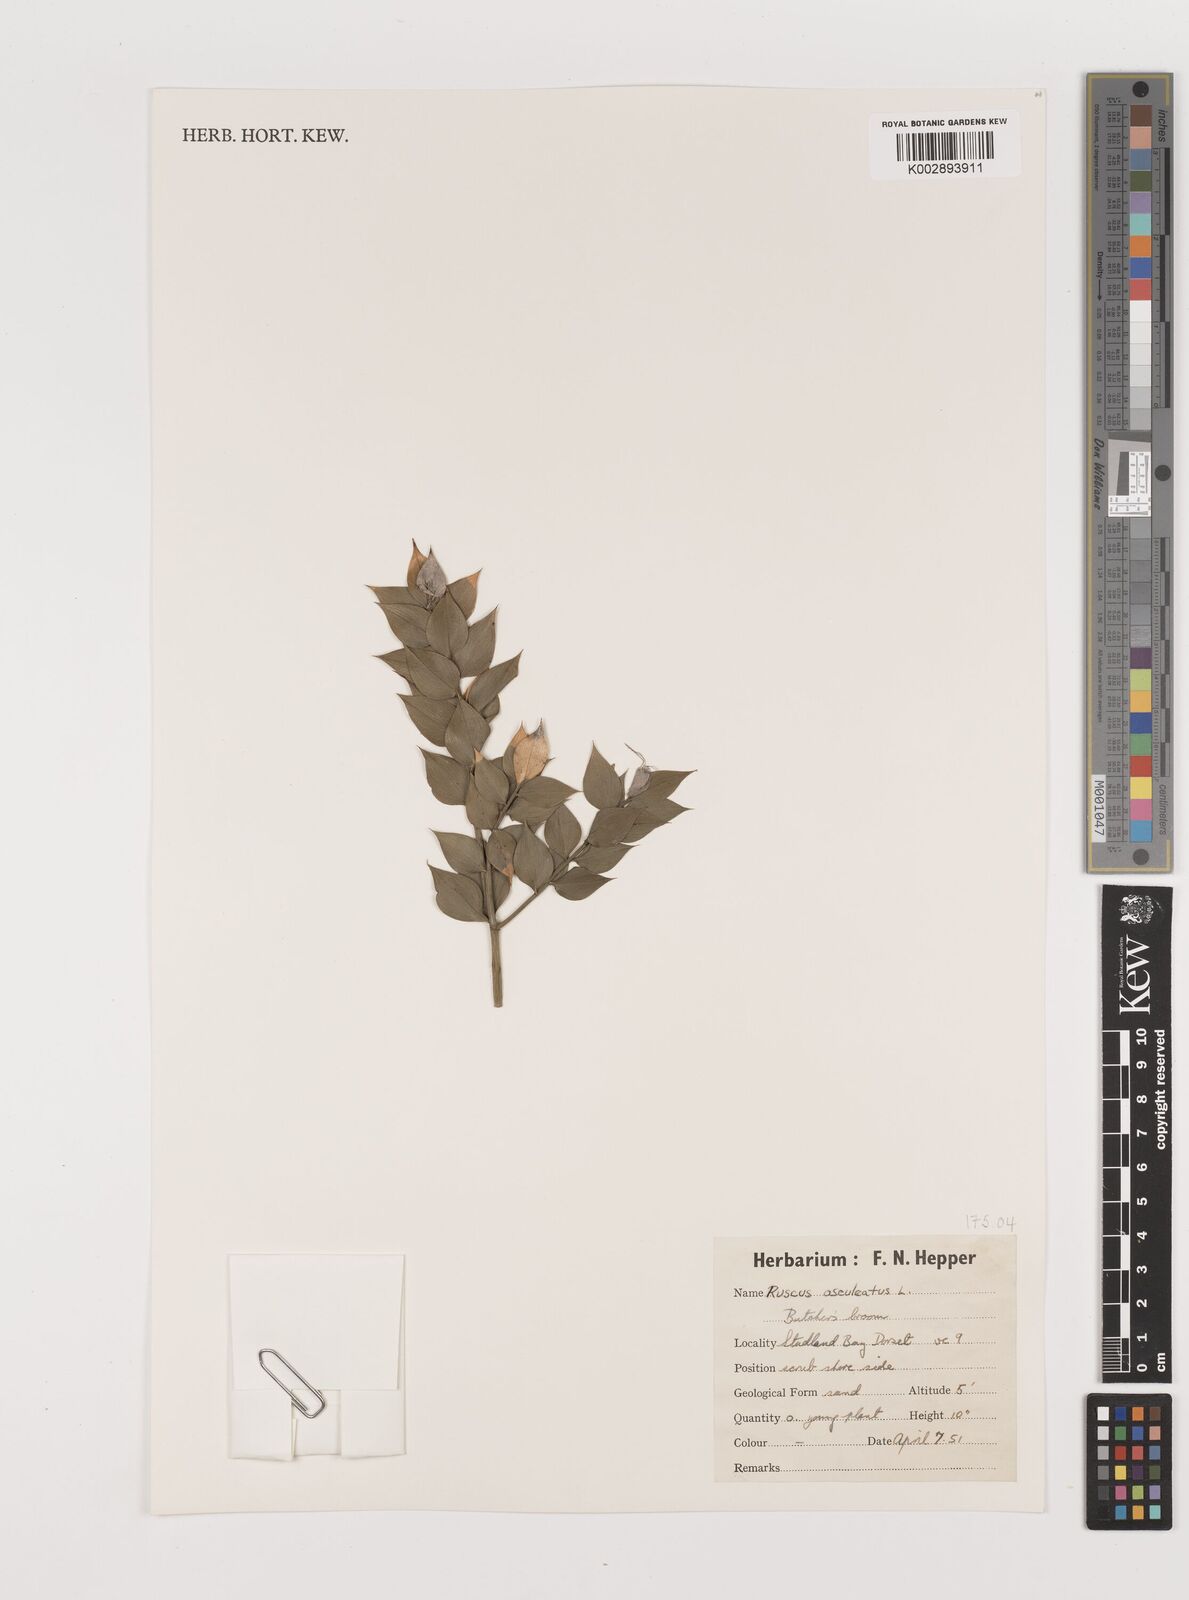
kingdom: Plantae
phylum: Tracheophyta
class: Liliopsida
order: Asparagales
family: Asparagaceae
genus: Ruscus
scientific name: Ruscus aculeatus
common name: Butcher's-broom
